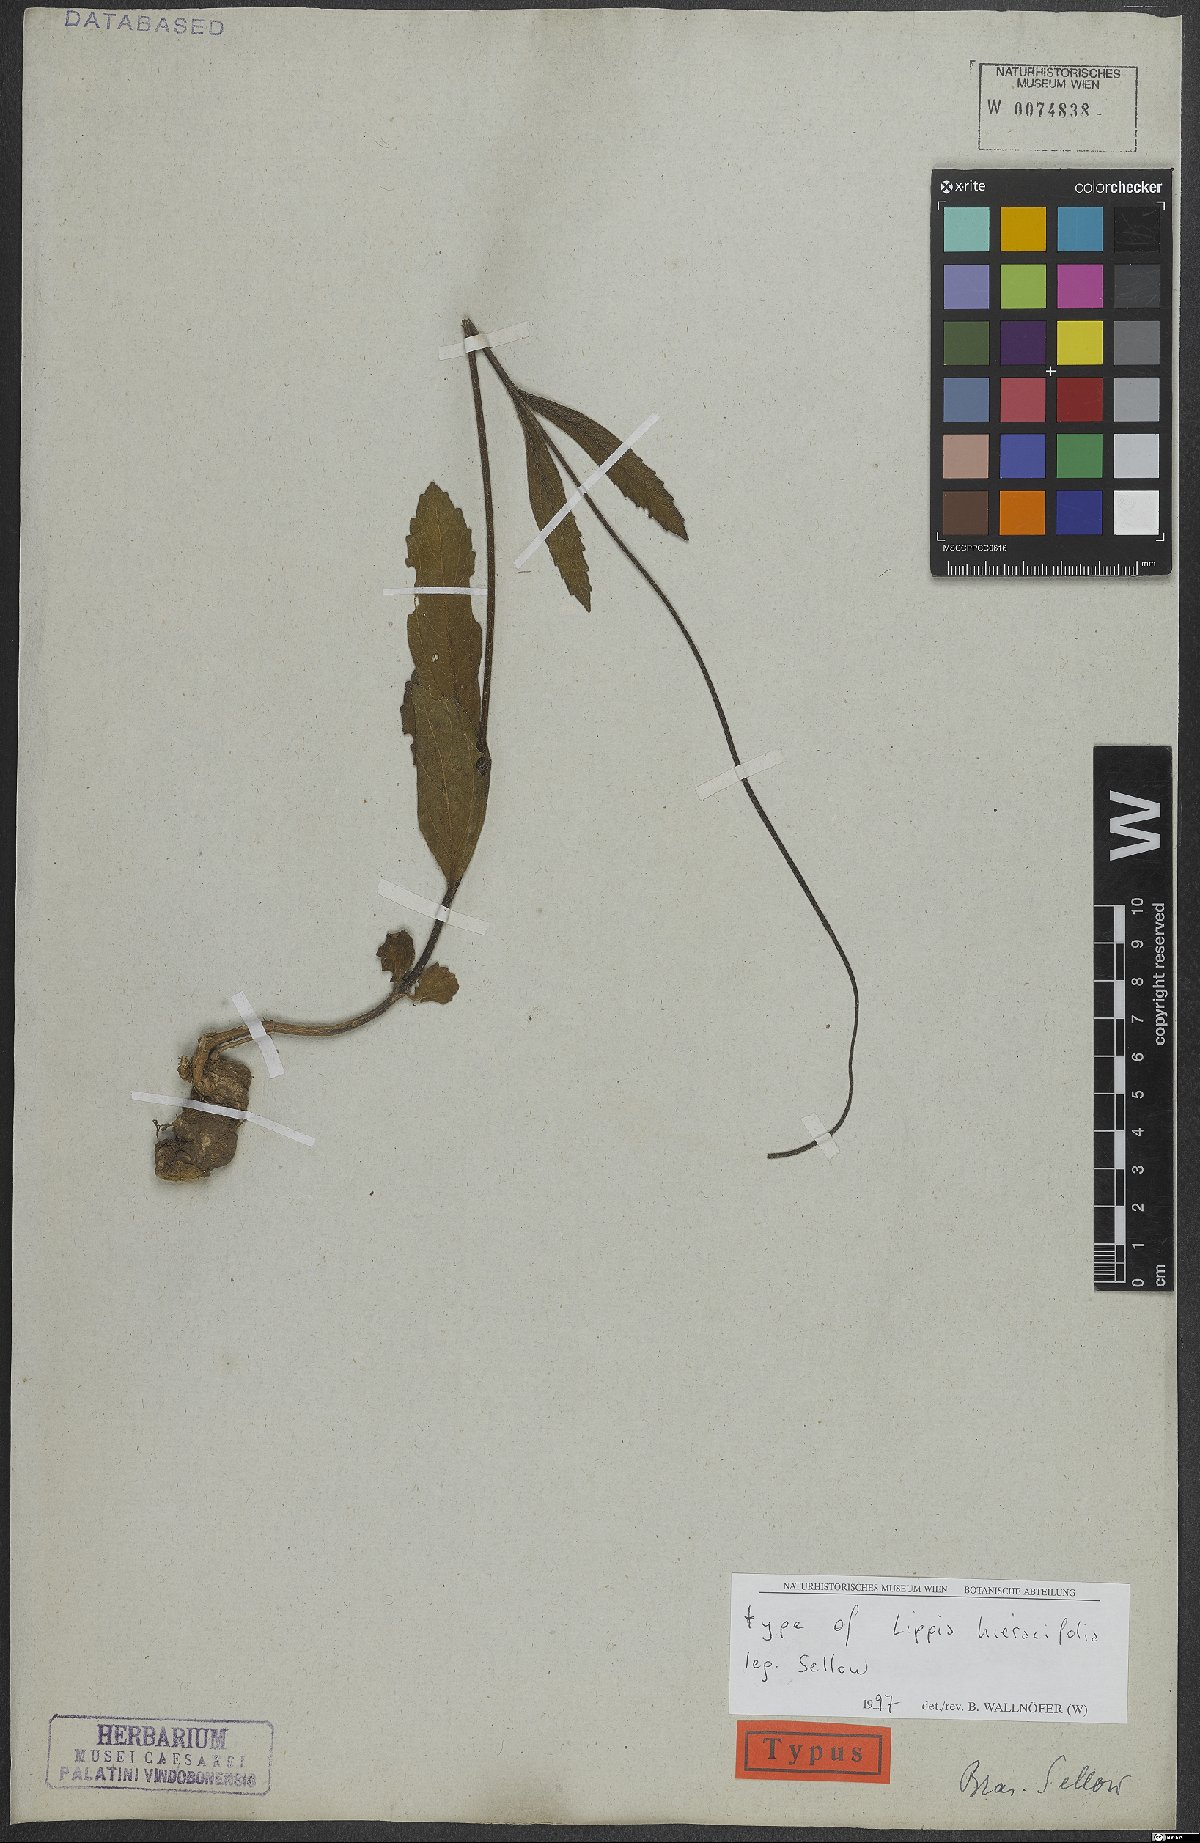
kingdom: Plantae
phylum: Tracheophyta
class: Magnoliopsida
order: Lamiales
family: Verbenaceae
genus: Lippia
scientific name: Lippia hieraciifolia
